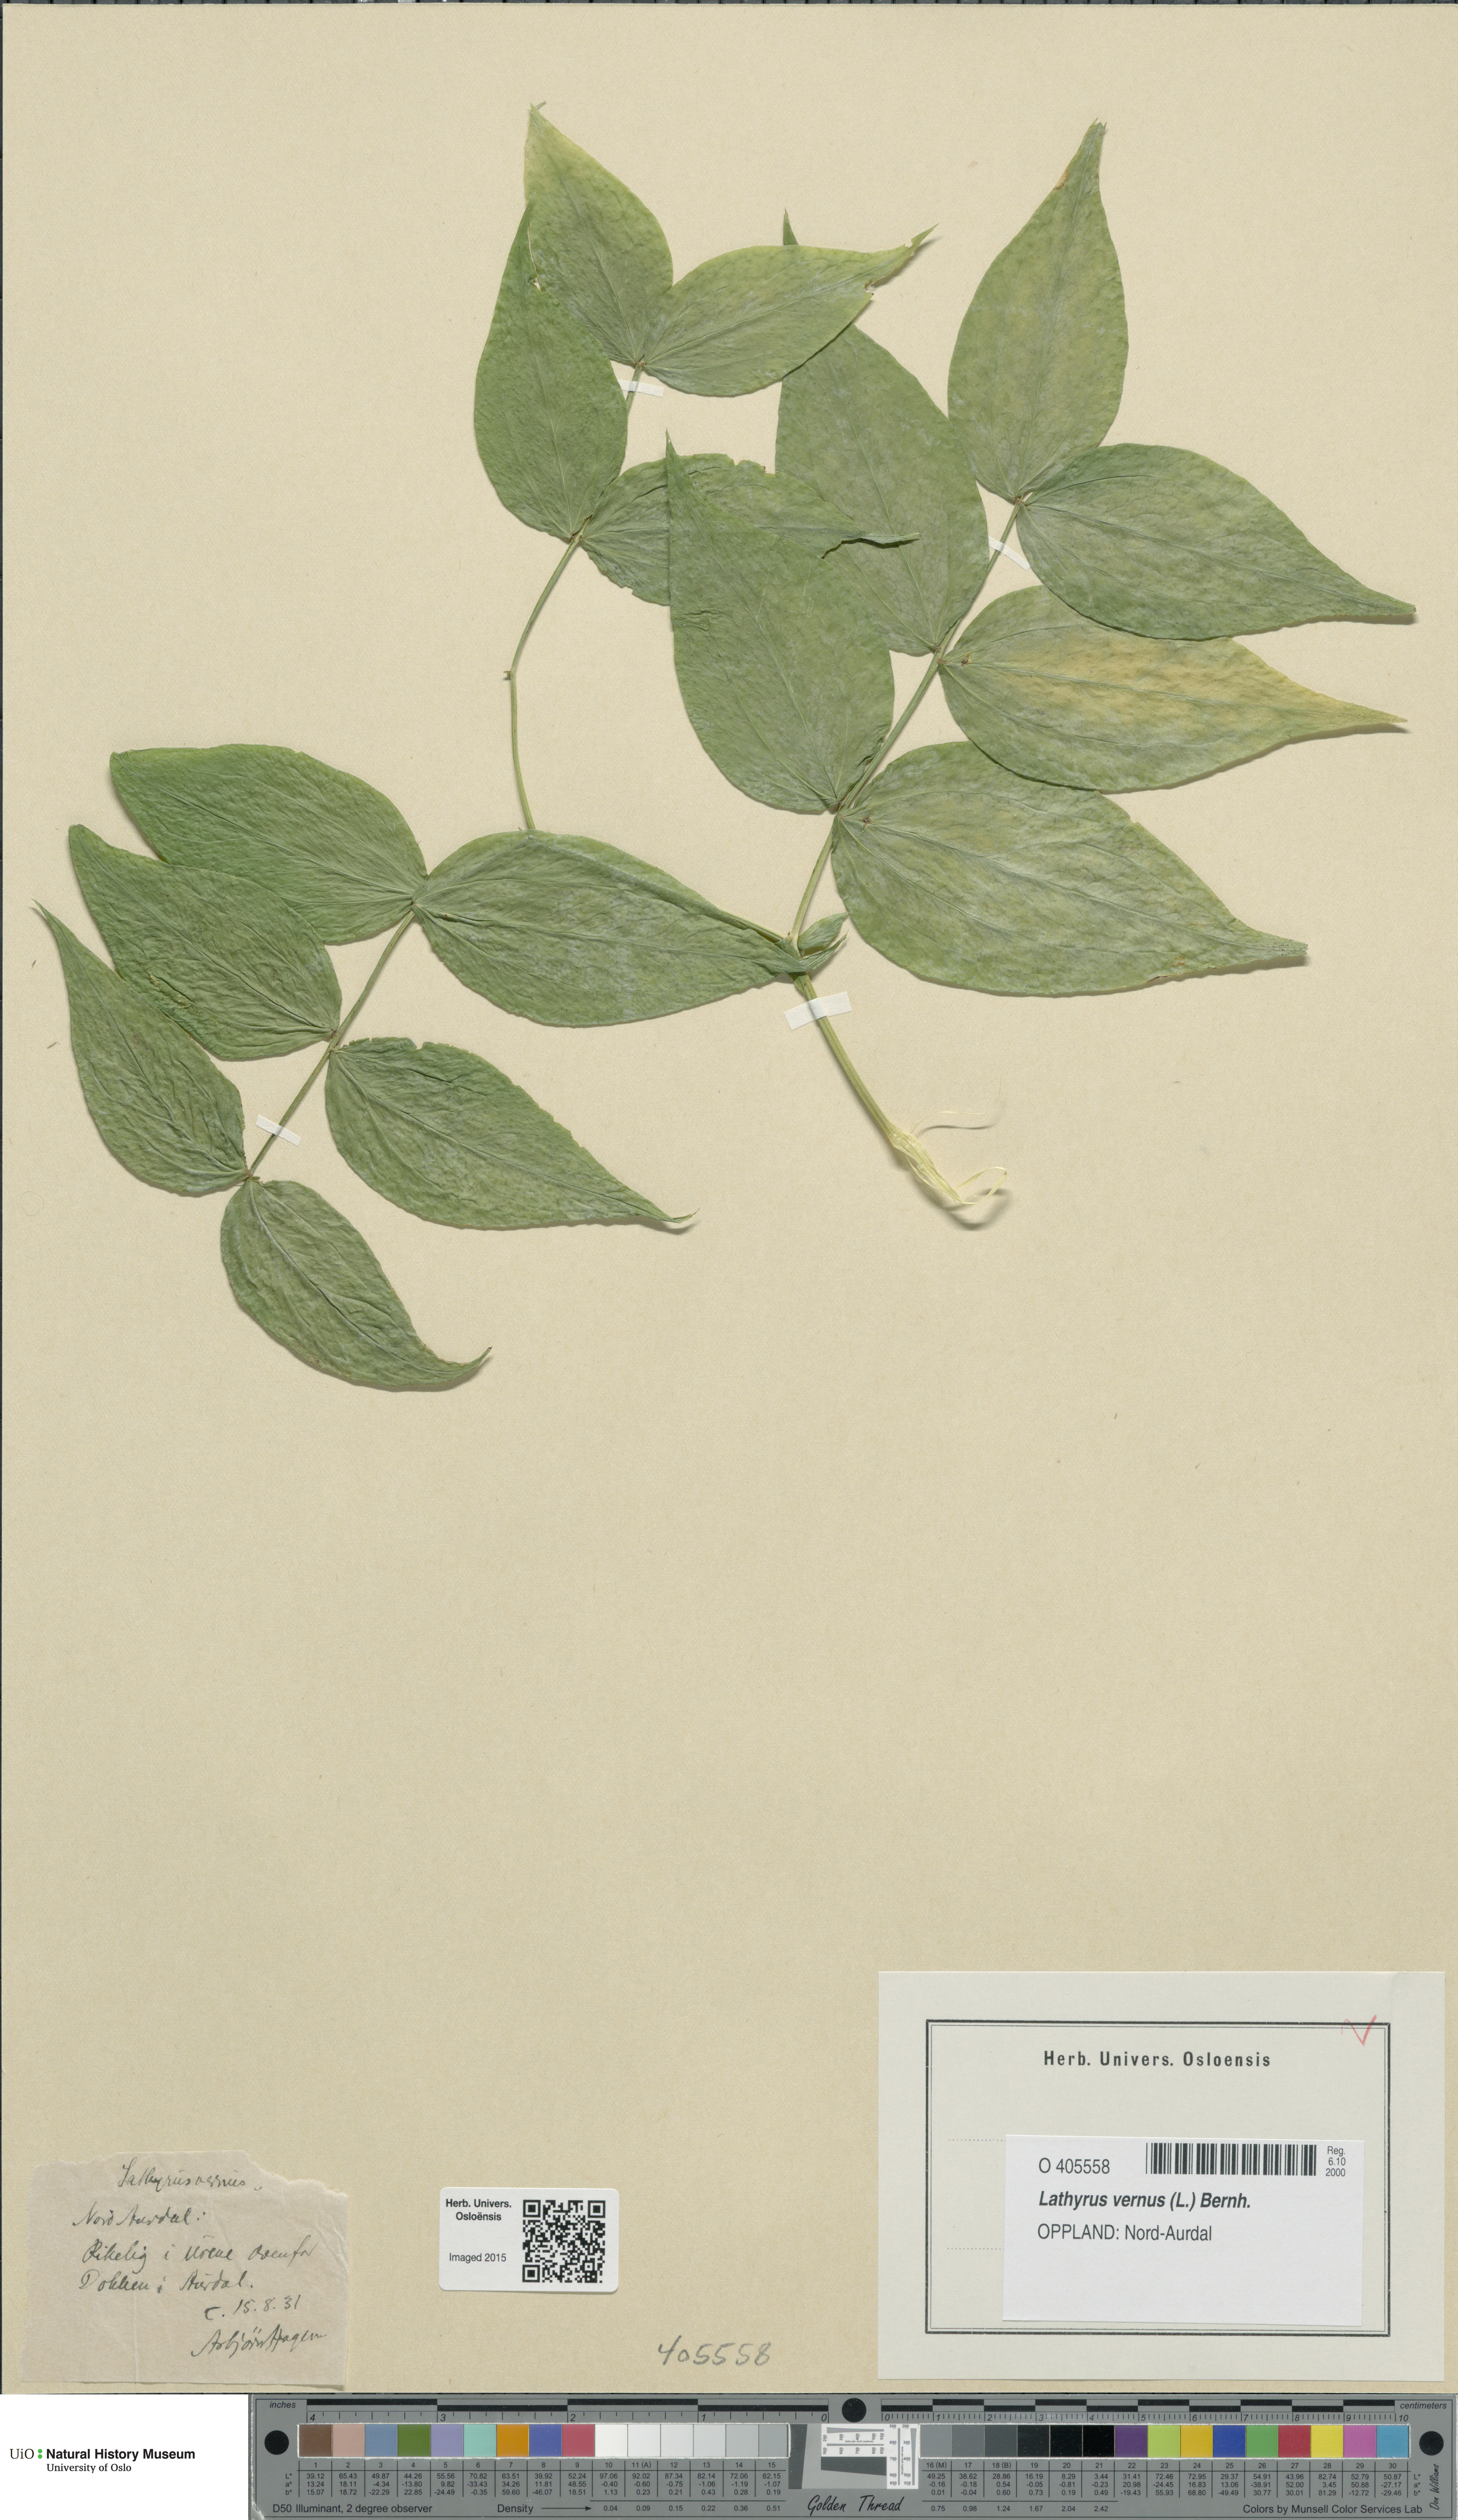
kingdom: Plantae
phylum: Tracheophyta
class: Magnoliopsida
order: Fabales
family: Fabaceae
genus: Lathyrus
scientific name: Lathyrus vernus
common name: Spring pea
